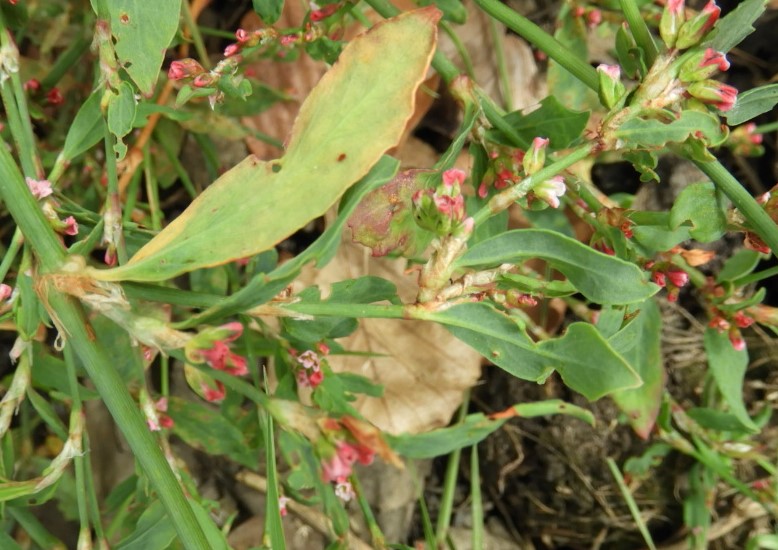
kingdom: Fungi
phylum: Basidiomycota
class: Pucciniomycetes
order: Pucciniales
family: Pucciniaceae
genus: Uromyces
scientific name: Uromyces polygoni-avicularis
